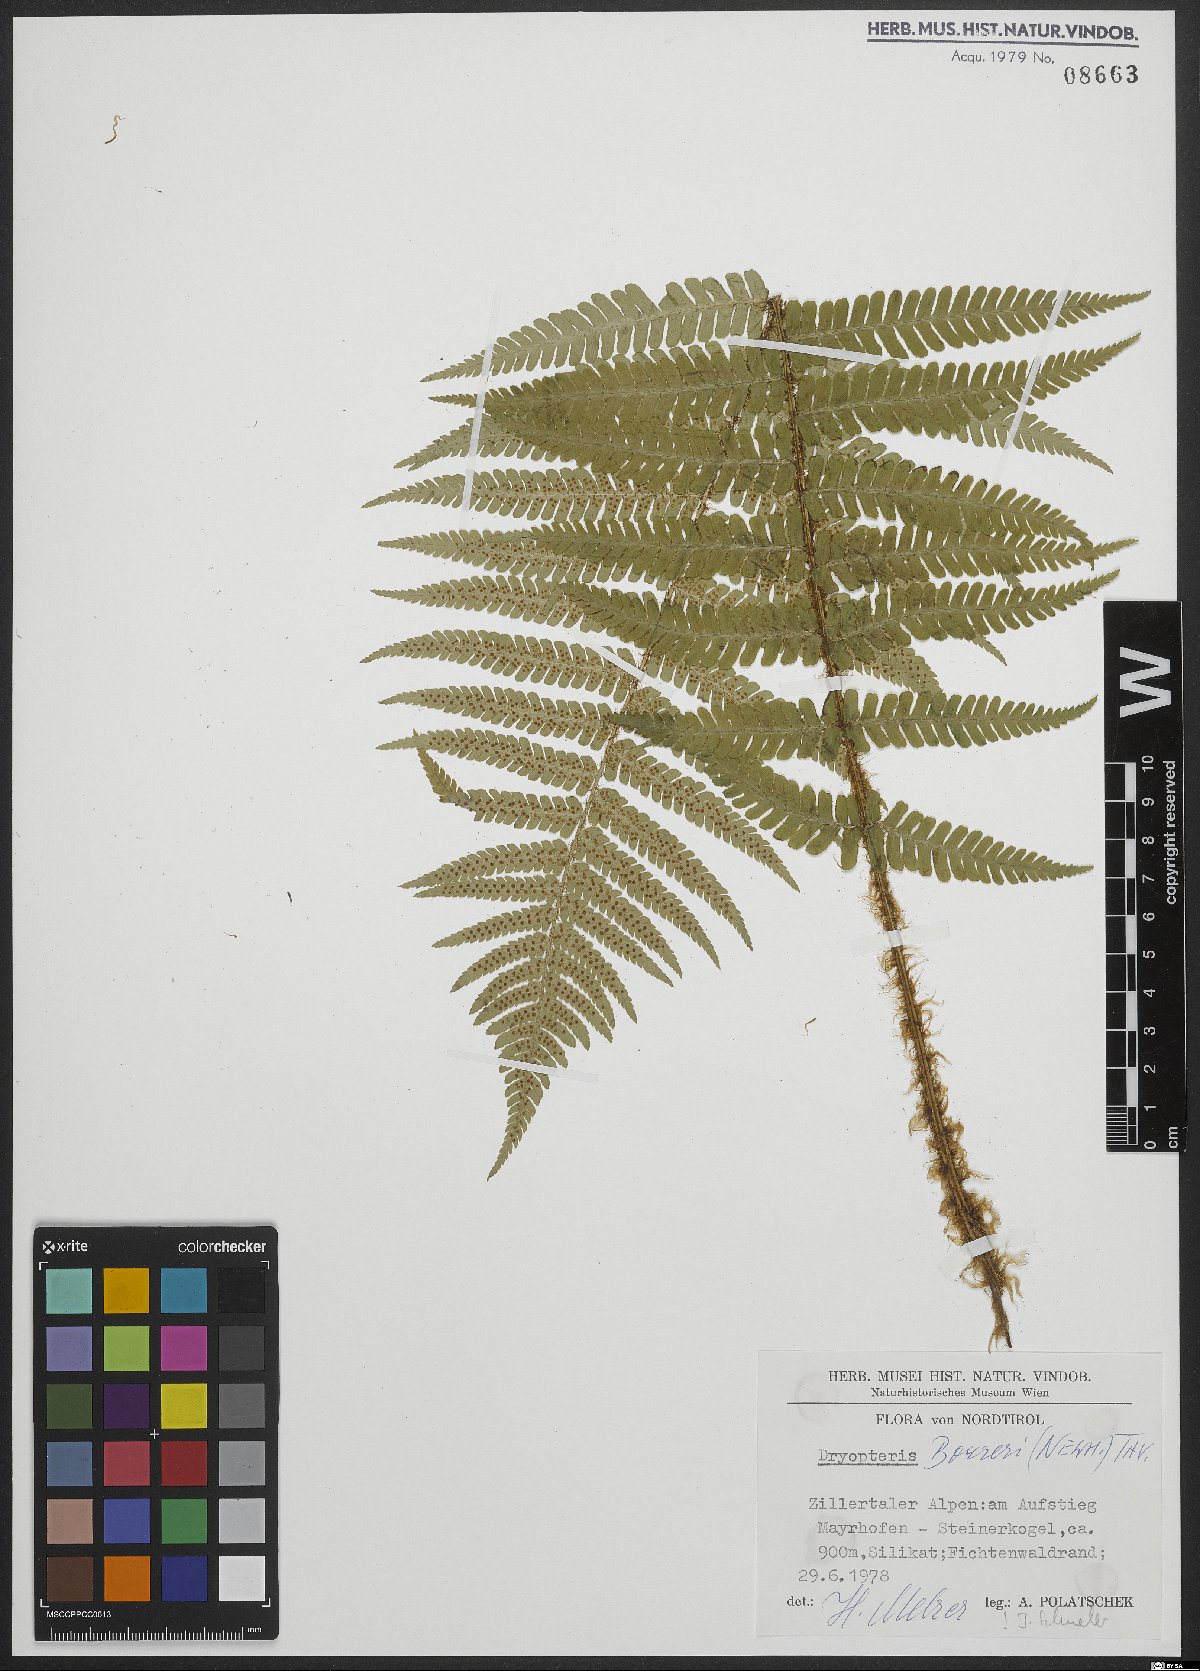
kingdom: Plantae
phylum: Tracheophyta
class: Polypodiopsida
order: Polypodiales
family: Dryopteridaceae
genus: Dryopteris
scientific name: Dryopteris borreri
